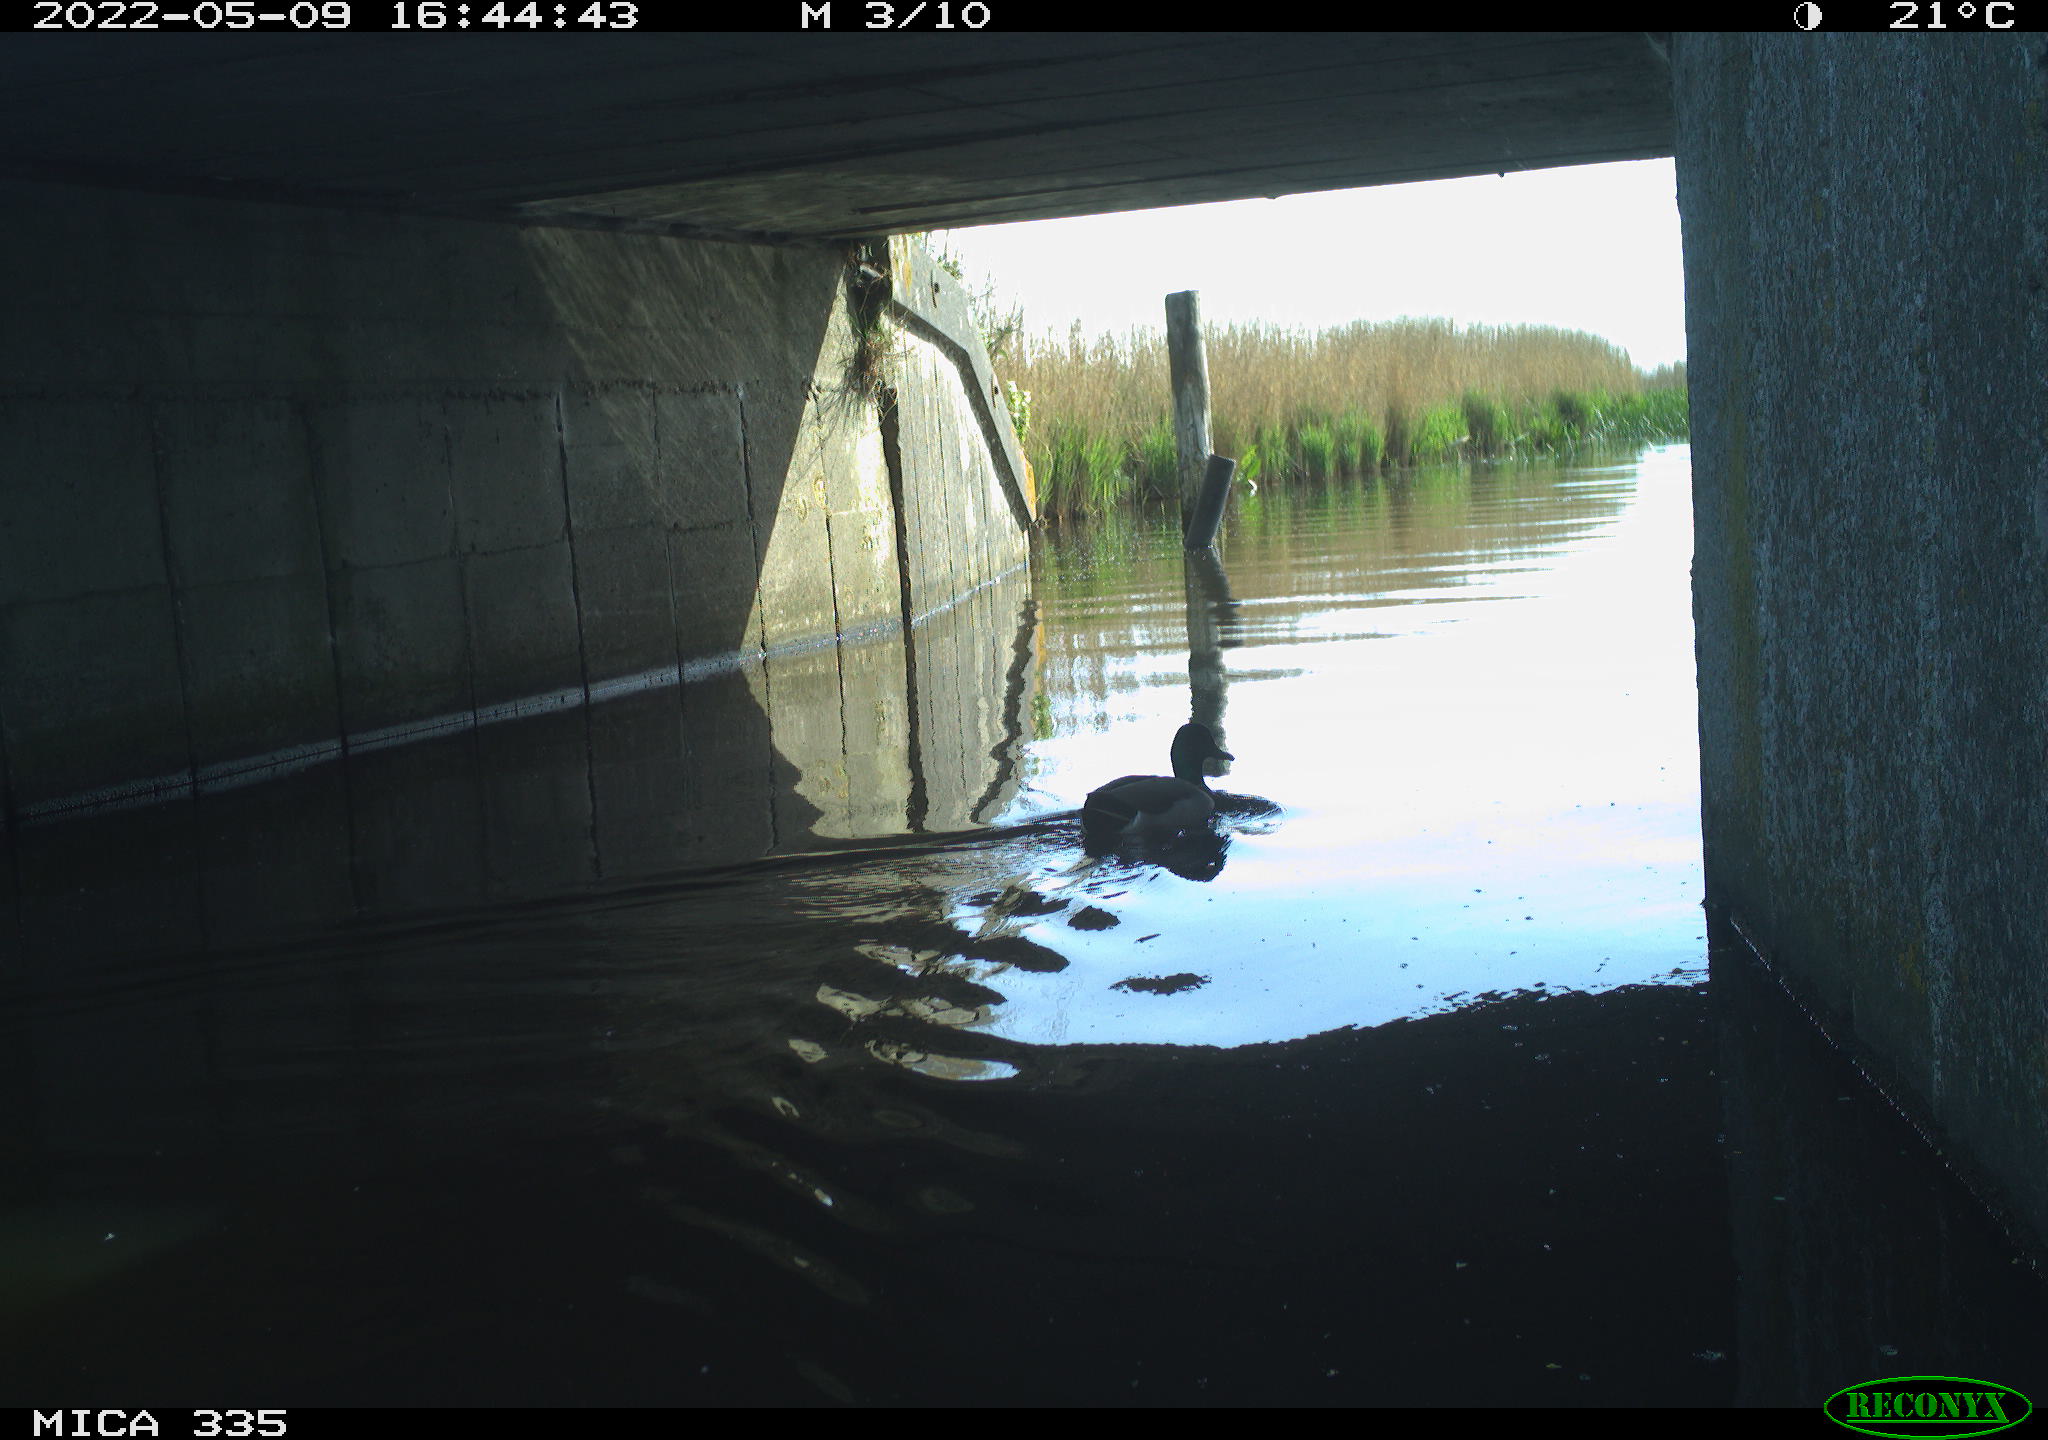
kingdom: Animalia
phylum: Chordata
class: Aves
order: Anseriformes
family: Anatidae
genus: Anas
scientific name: Anas platyrhynchos
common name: Mallard
